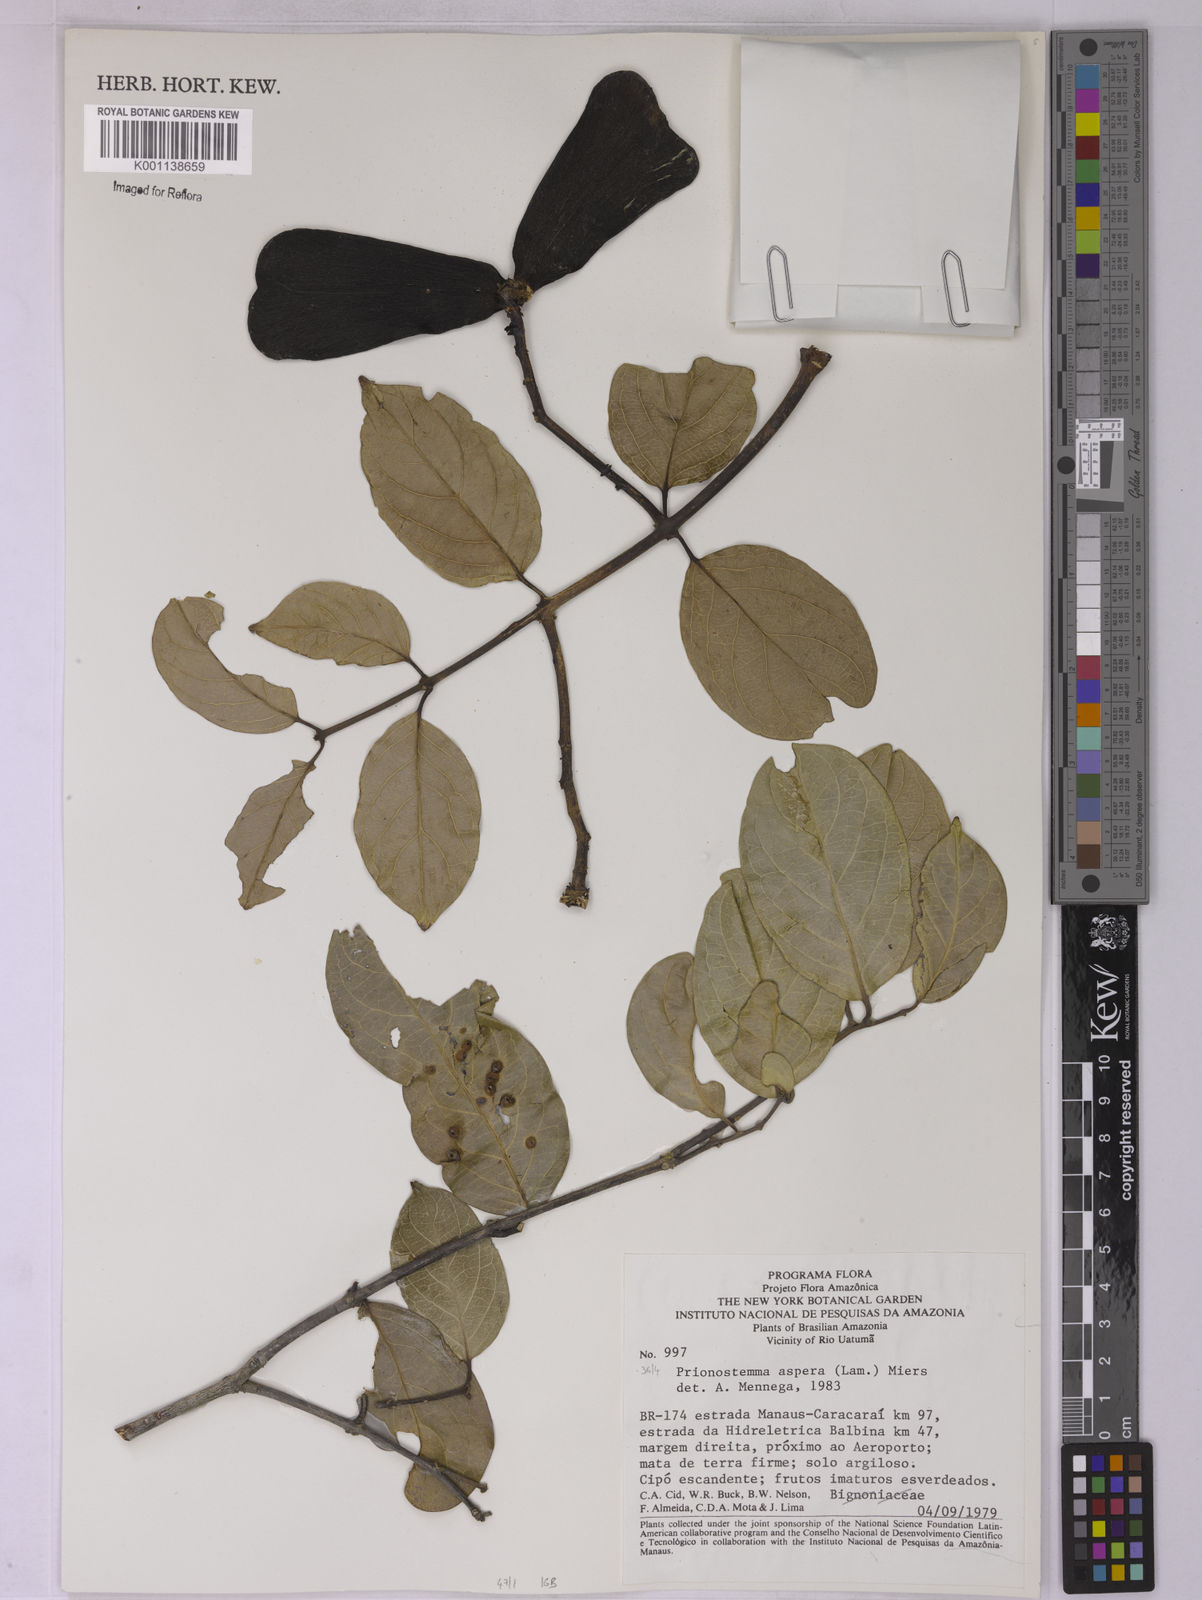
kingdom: Plantae
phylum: Tracheophyta
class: Magnoliopsida
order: Celastrales
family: Celastraceae
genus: Prionostemma
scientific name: Prionostemma aspera
